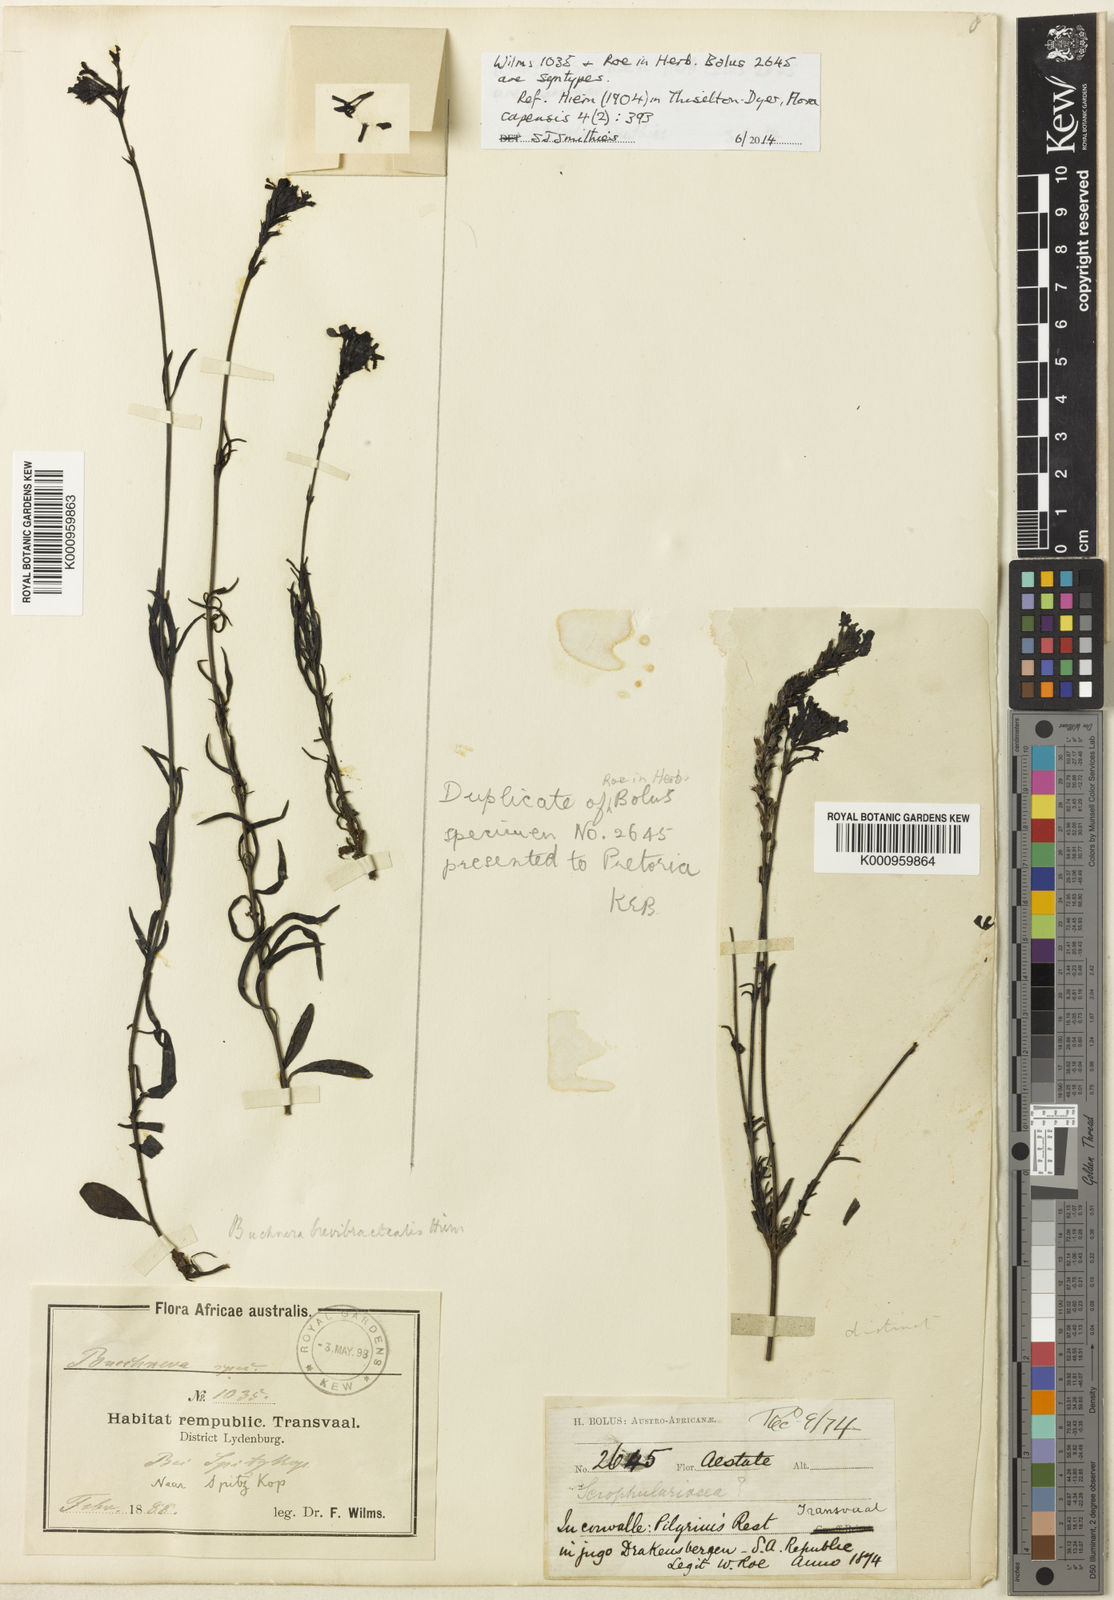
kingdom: Plantae
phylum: Tracheophyta
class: Magnoliopsida
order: Lamiales
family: Orobanchaceae
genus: Buchnera
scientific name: Buchnera longespicata
